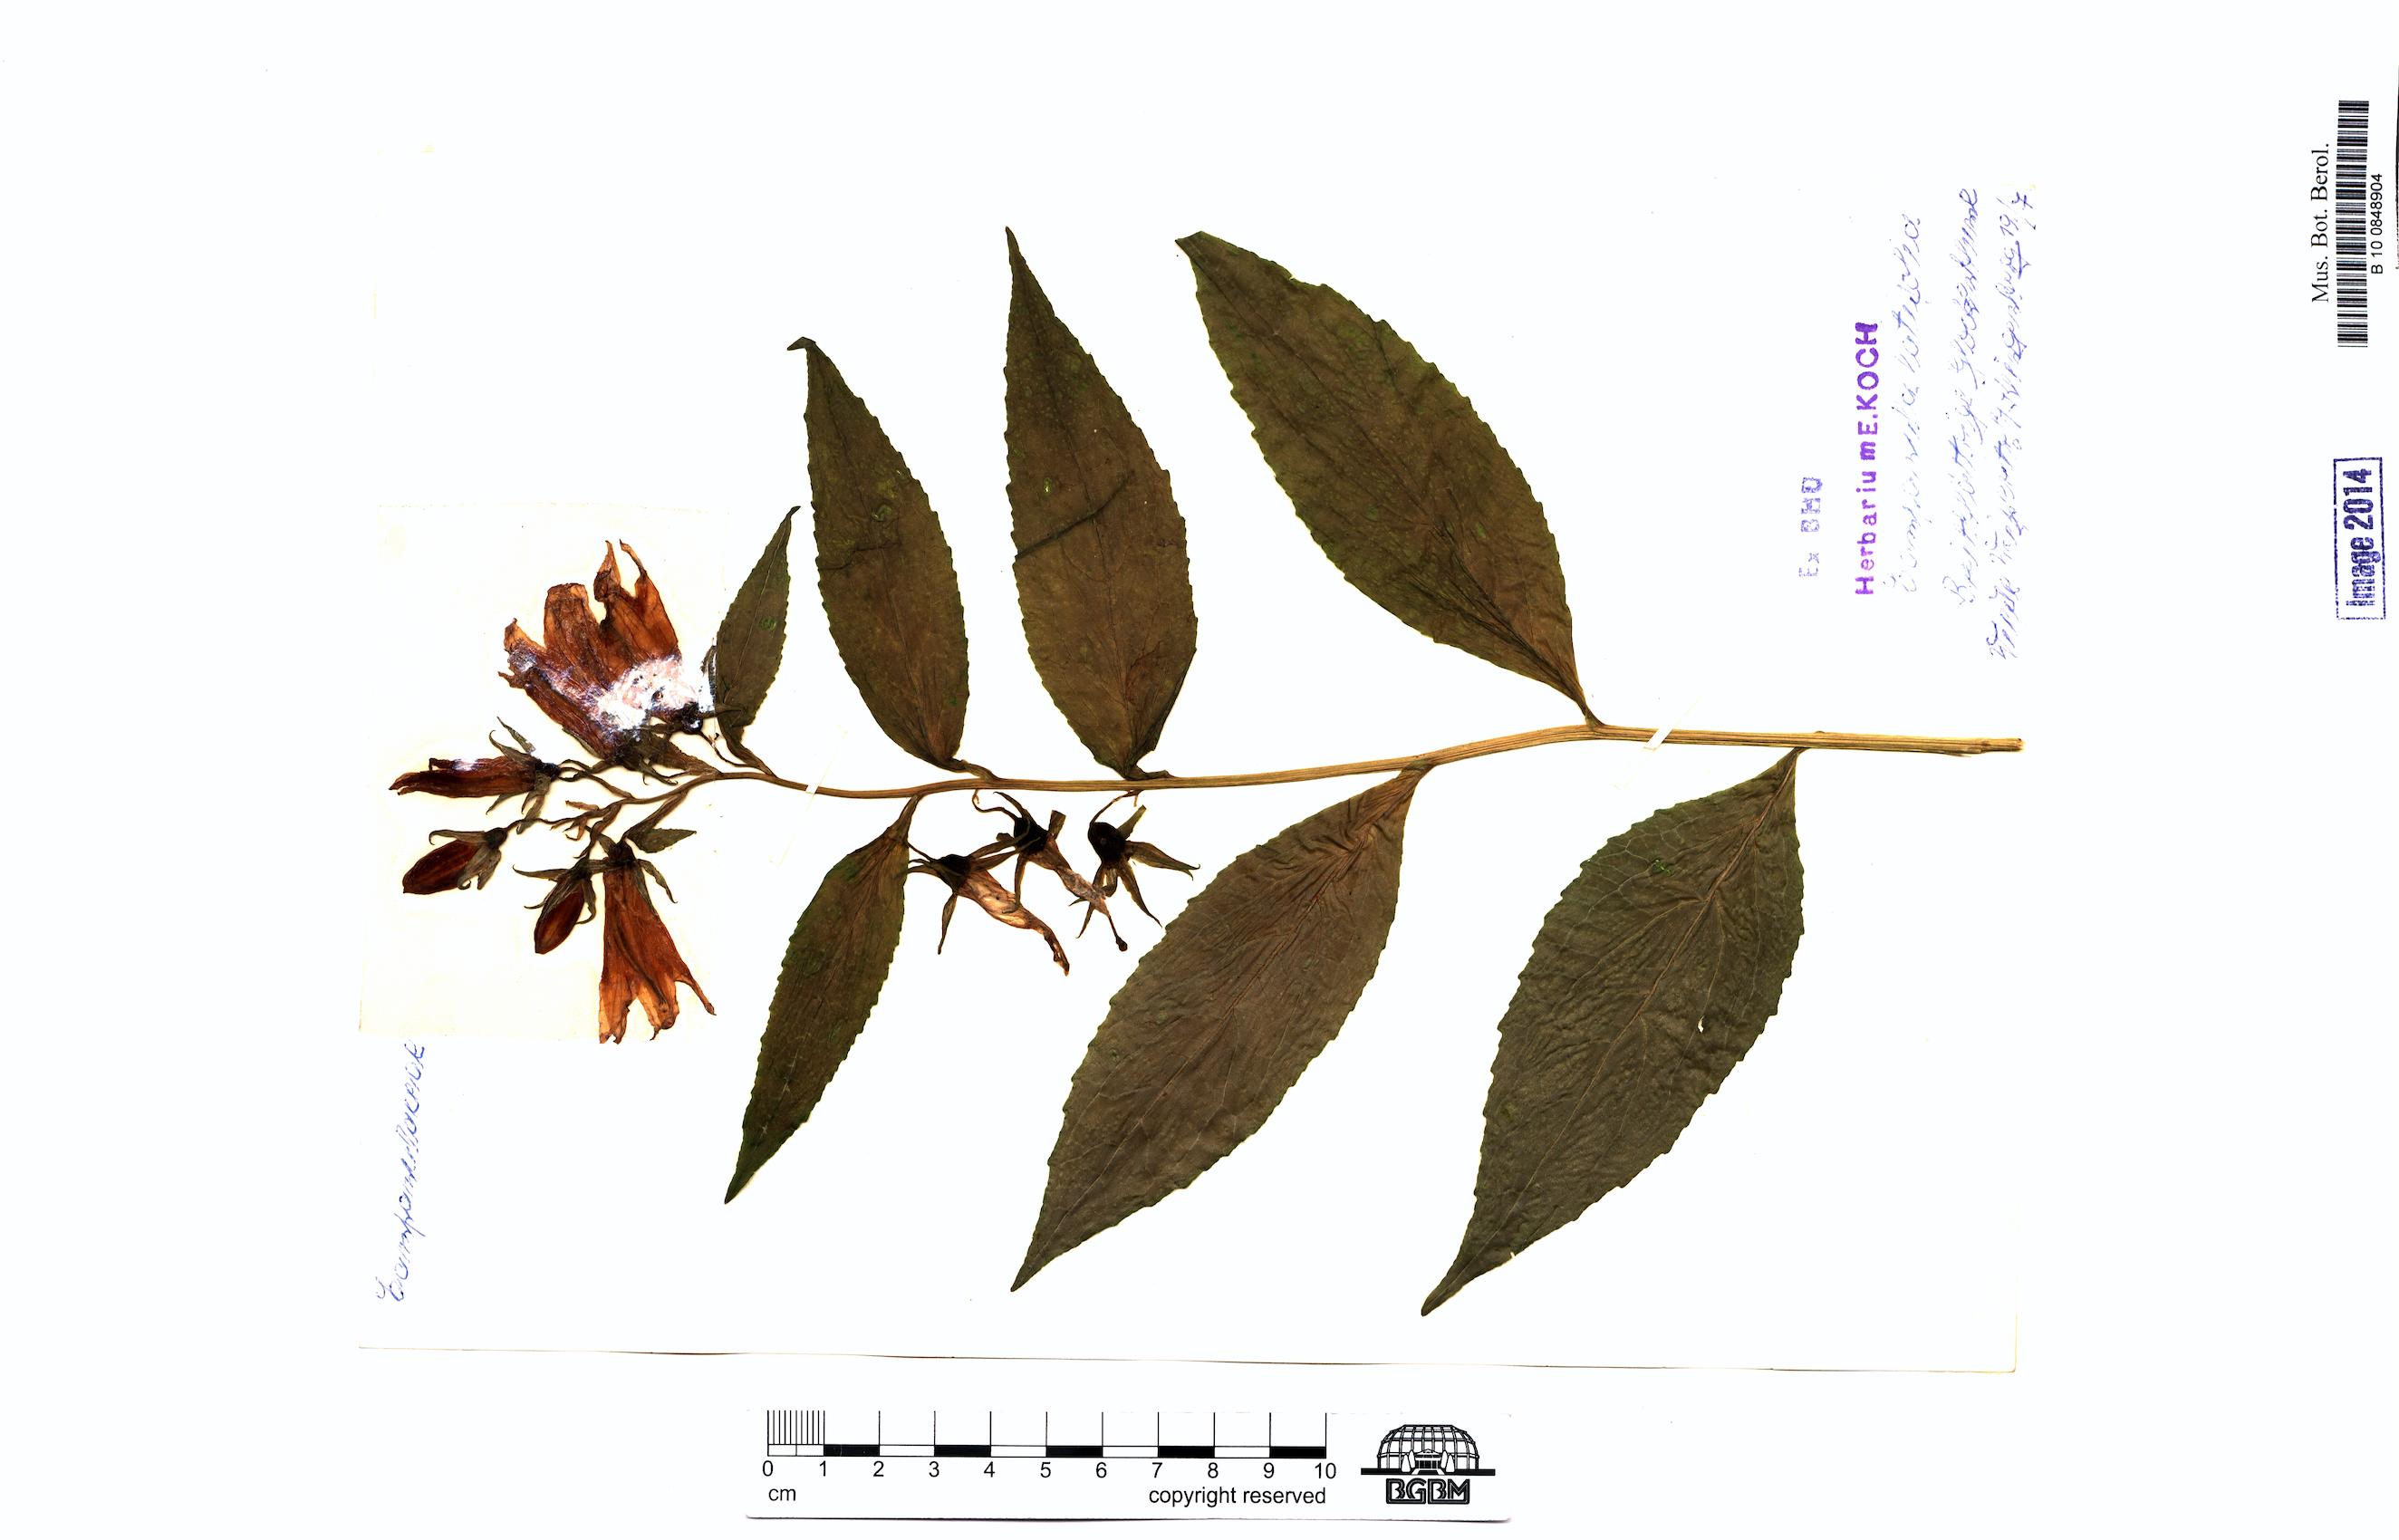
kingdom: Plantae
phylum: Tracheophyta
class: Magnoliopsida
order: Asterales
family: Campanulaceae
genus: Campanula
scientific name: Campanula latifolia
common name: Giant bellflower
